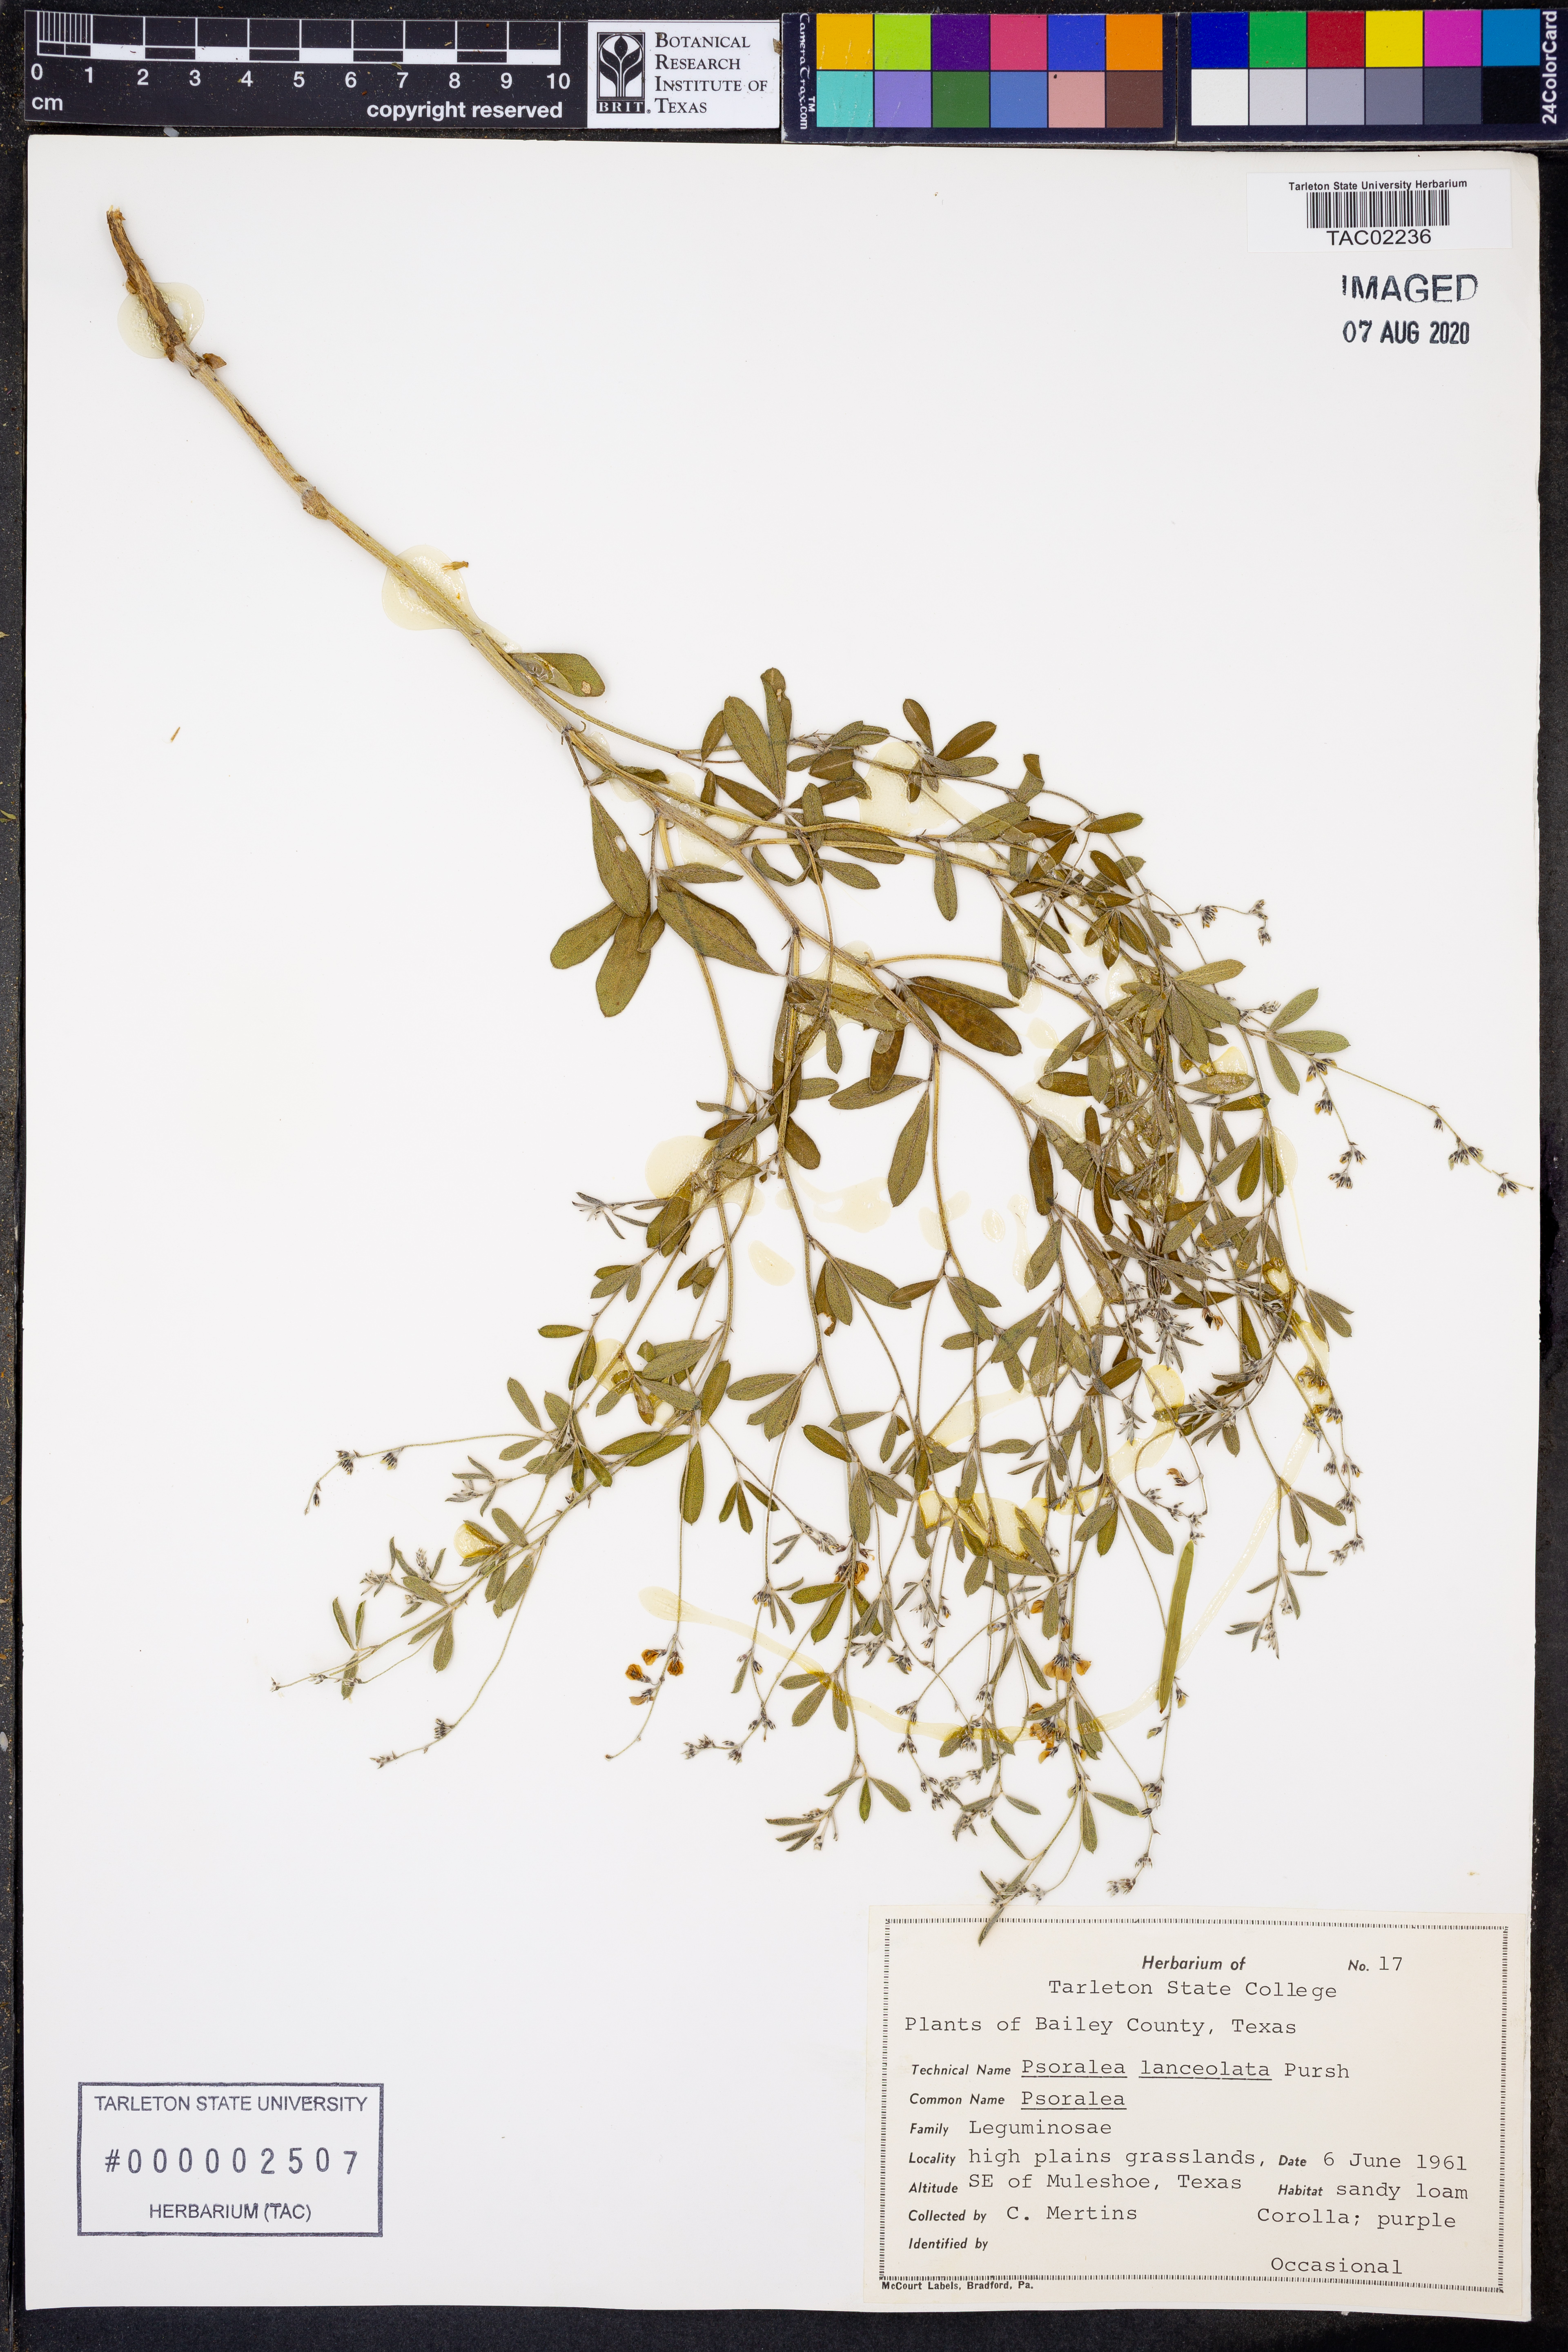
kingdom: Plantae
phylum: Tracheophyta
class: Magnoliopsida
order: Fabales
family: Fabaceae
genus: Ladeania
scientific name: Ladeania lanceolata
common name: Dune scurf-pea
